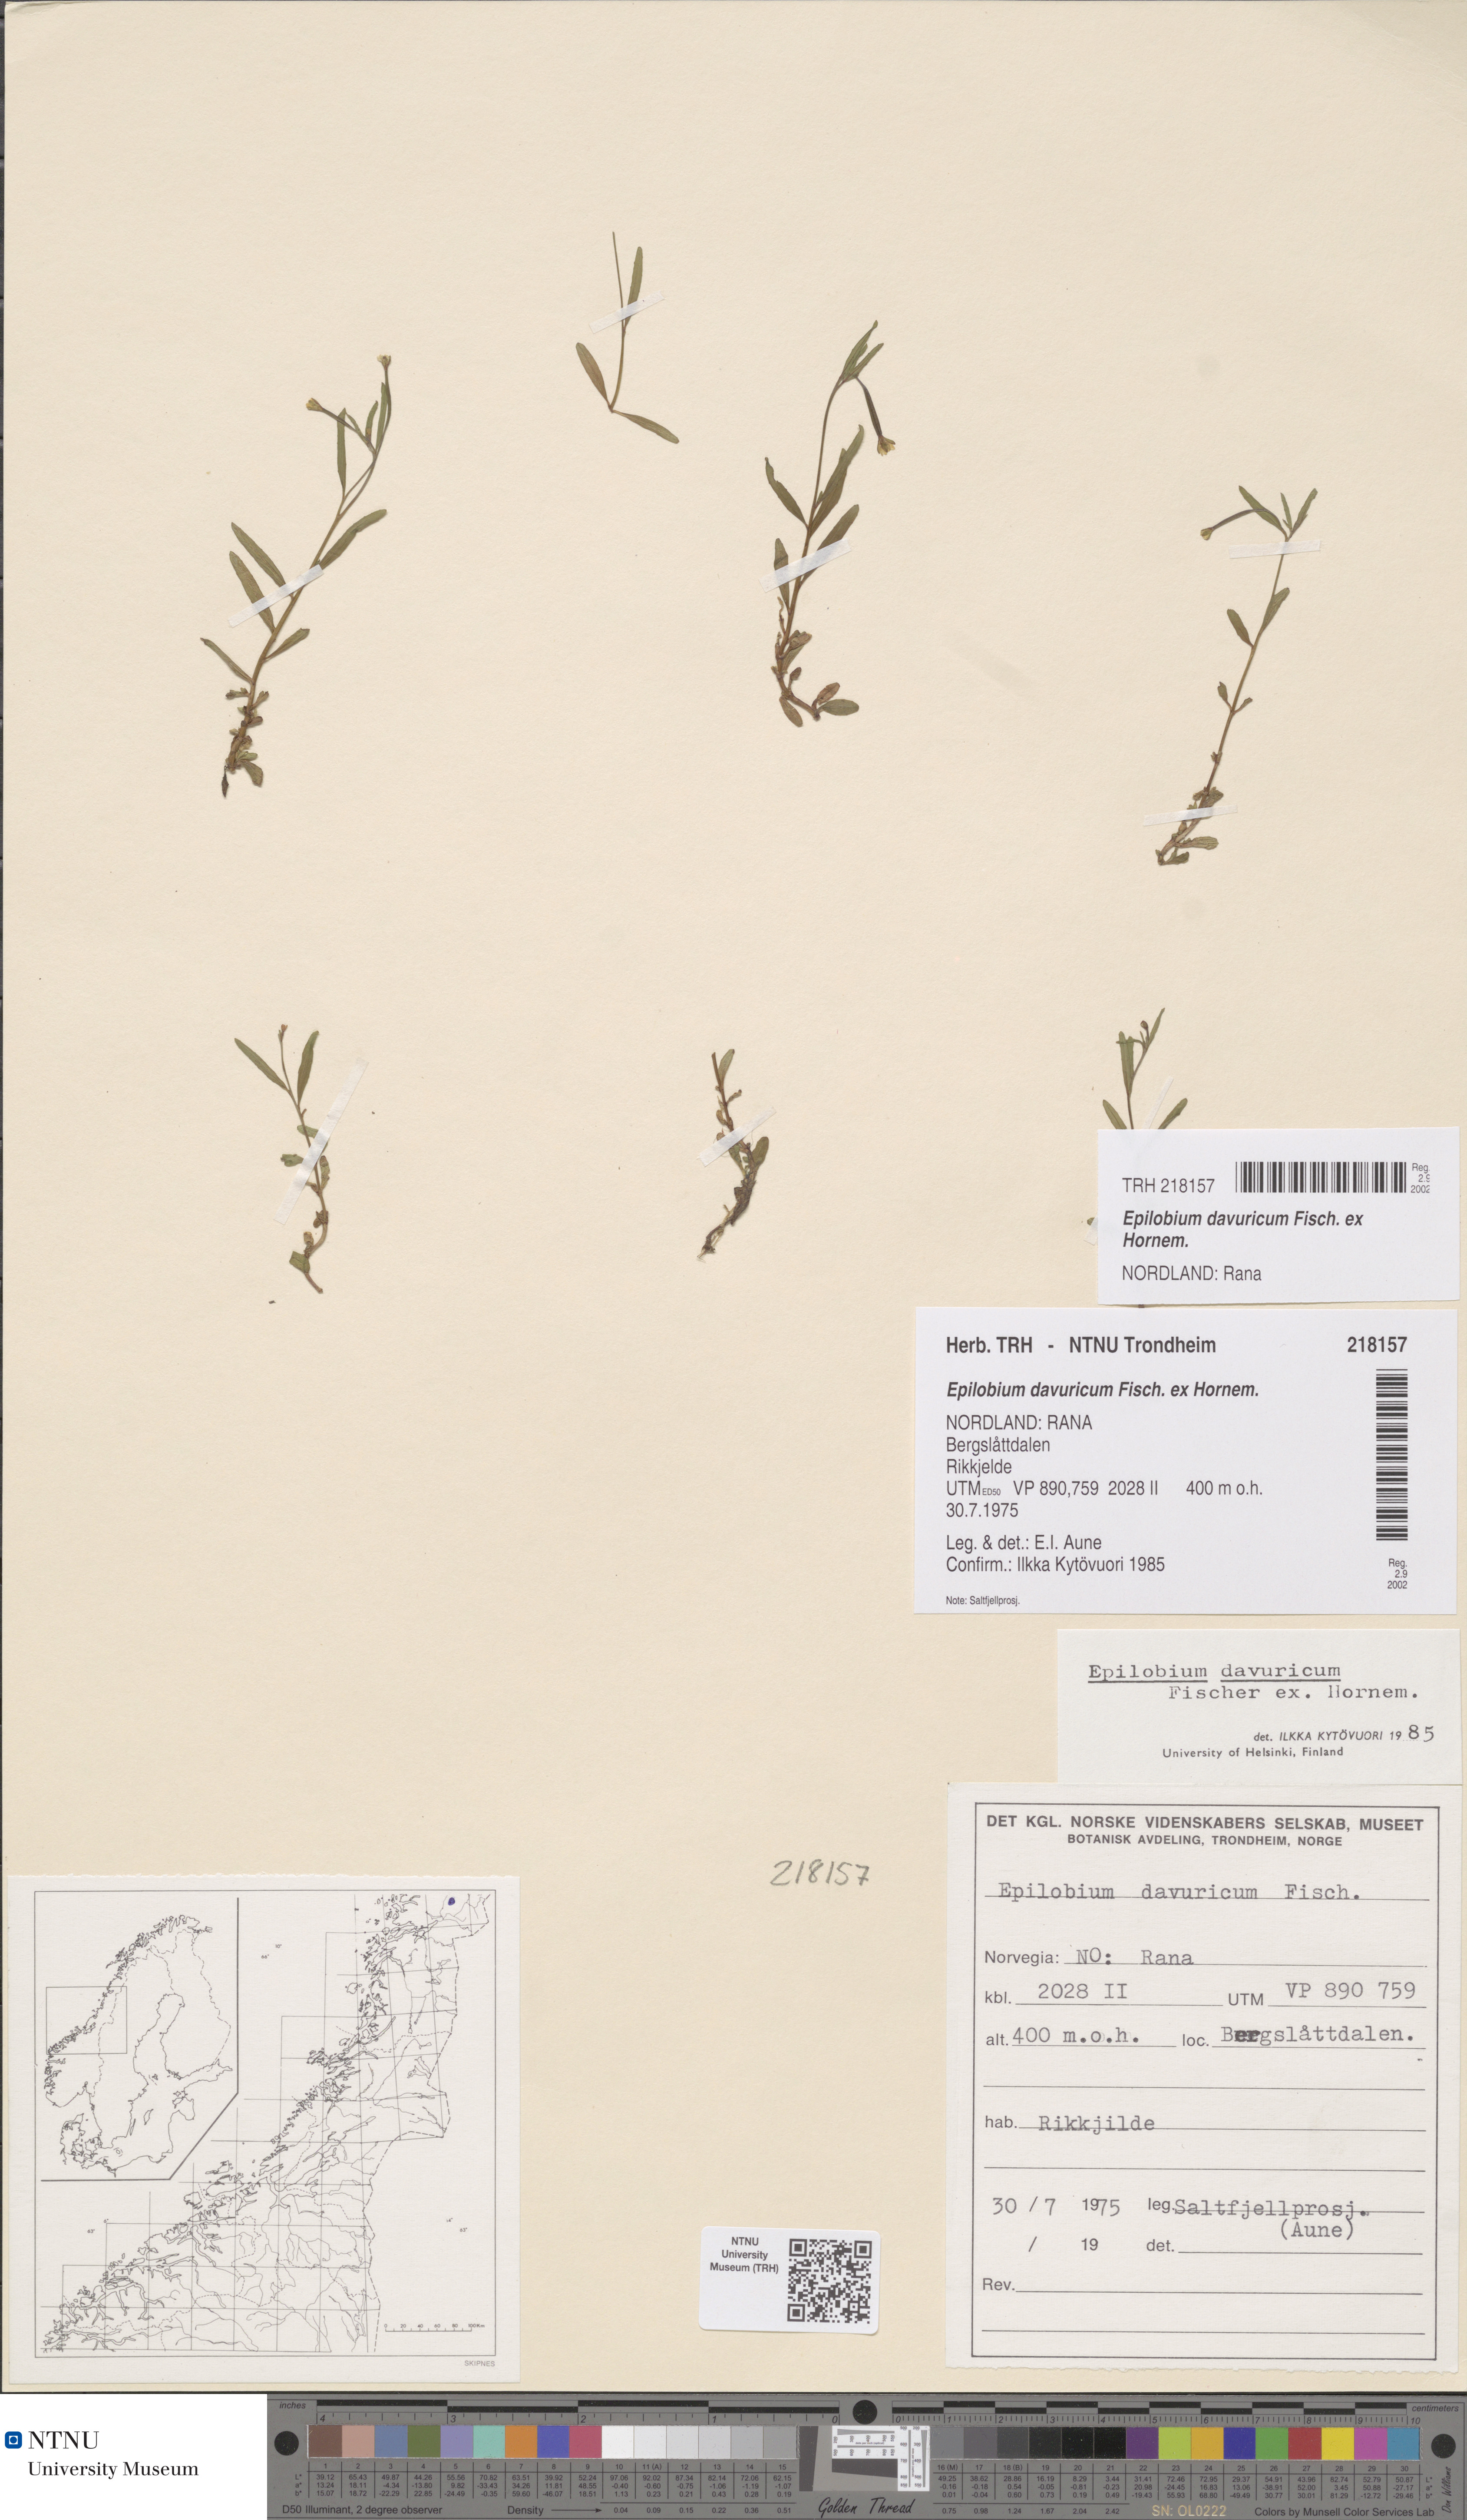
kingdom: Plantae
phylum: Tracheophyta
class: Magnoliopsida
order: Myrtales
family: Onagraceae
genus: Epilobium
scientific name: Epilobium davuricum
